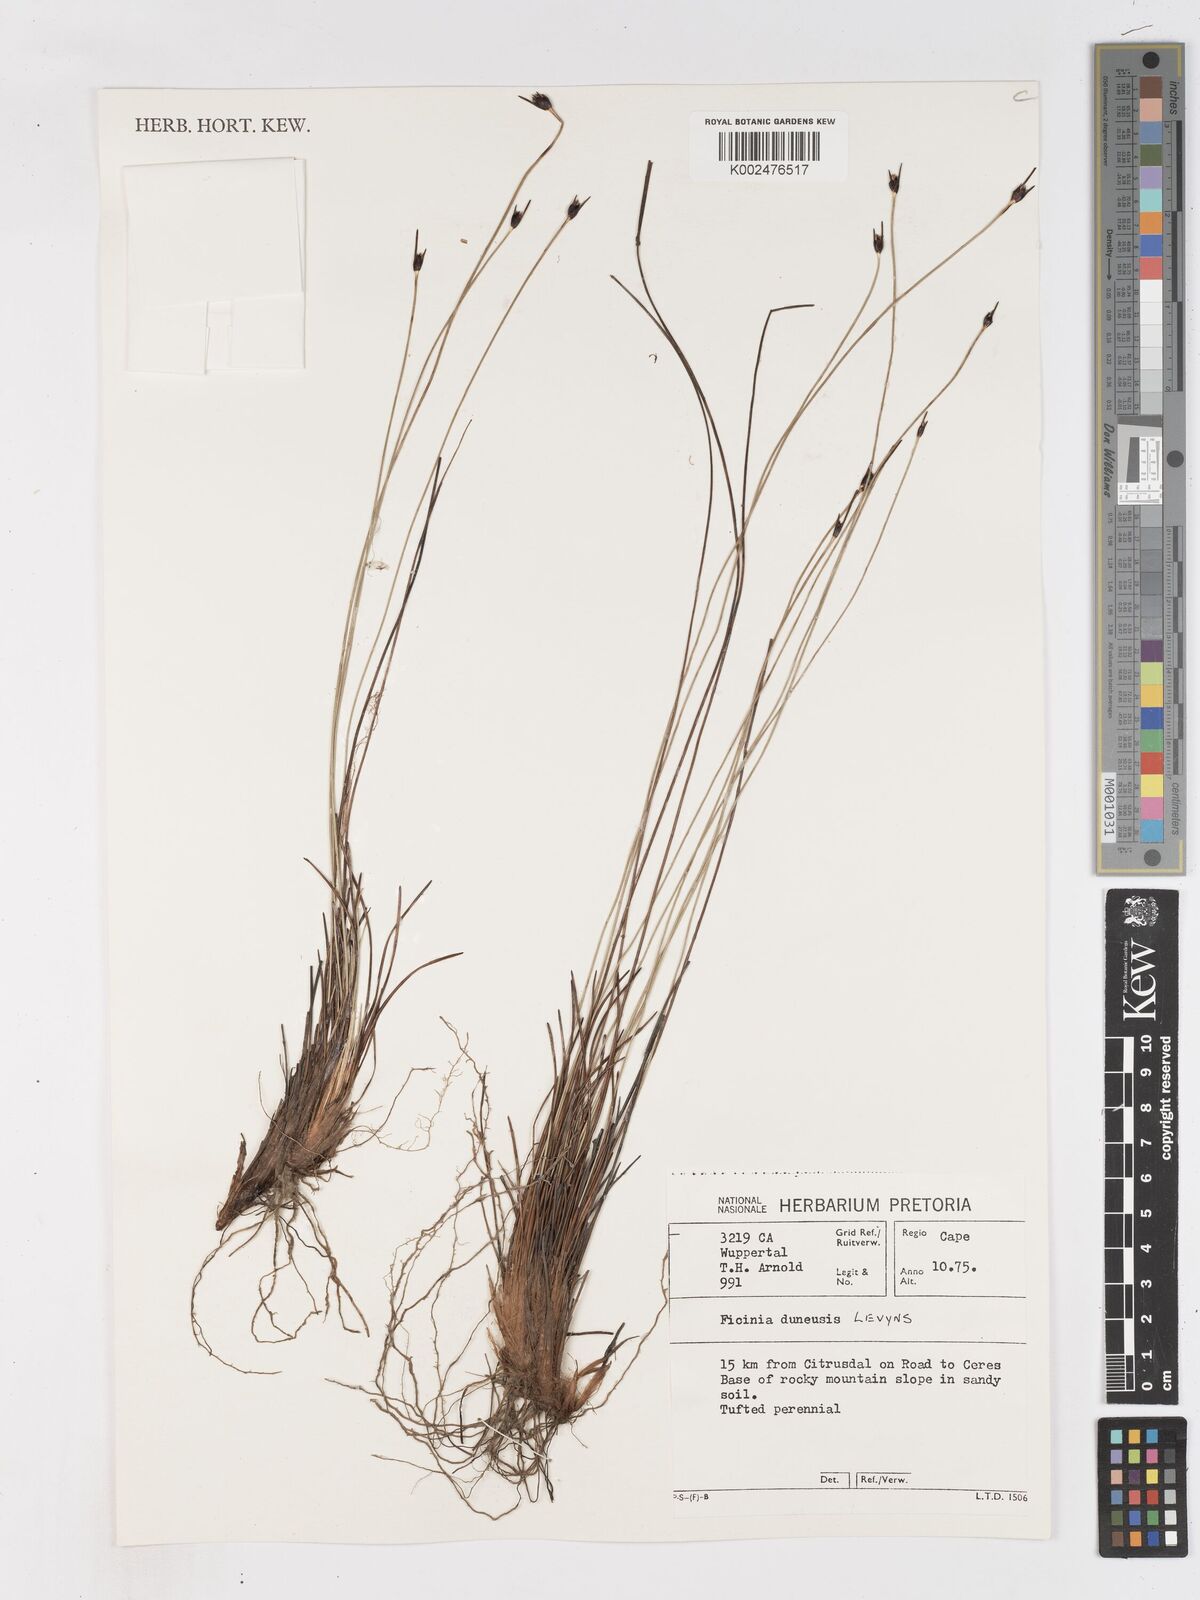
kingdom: Plantae
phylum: Tracheophyta
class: Liliopsida
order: Poales
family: Cyperaceae
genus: Ficinia
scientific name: Ficinia dunensis
